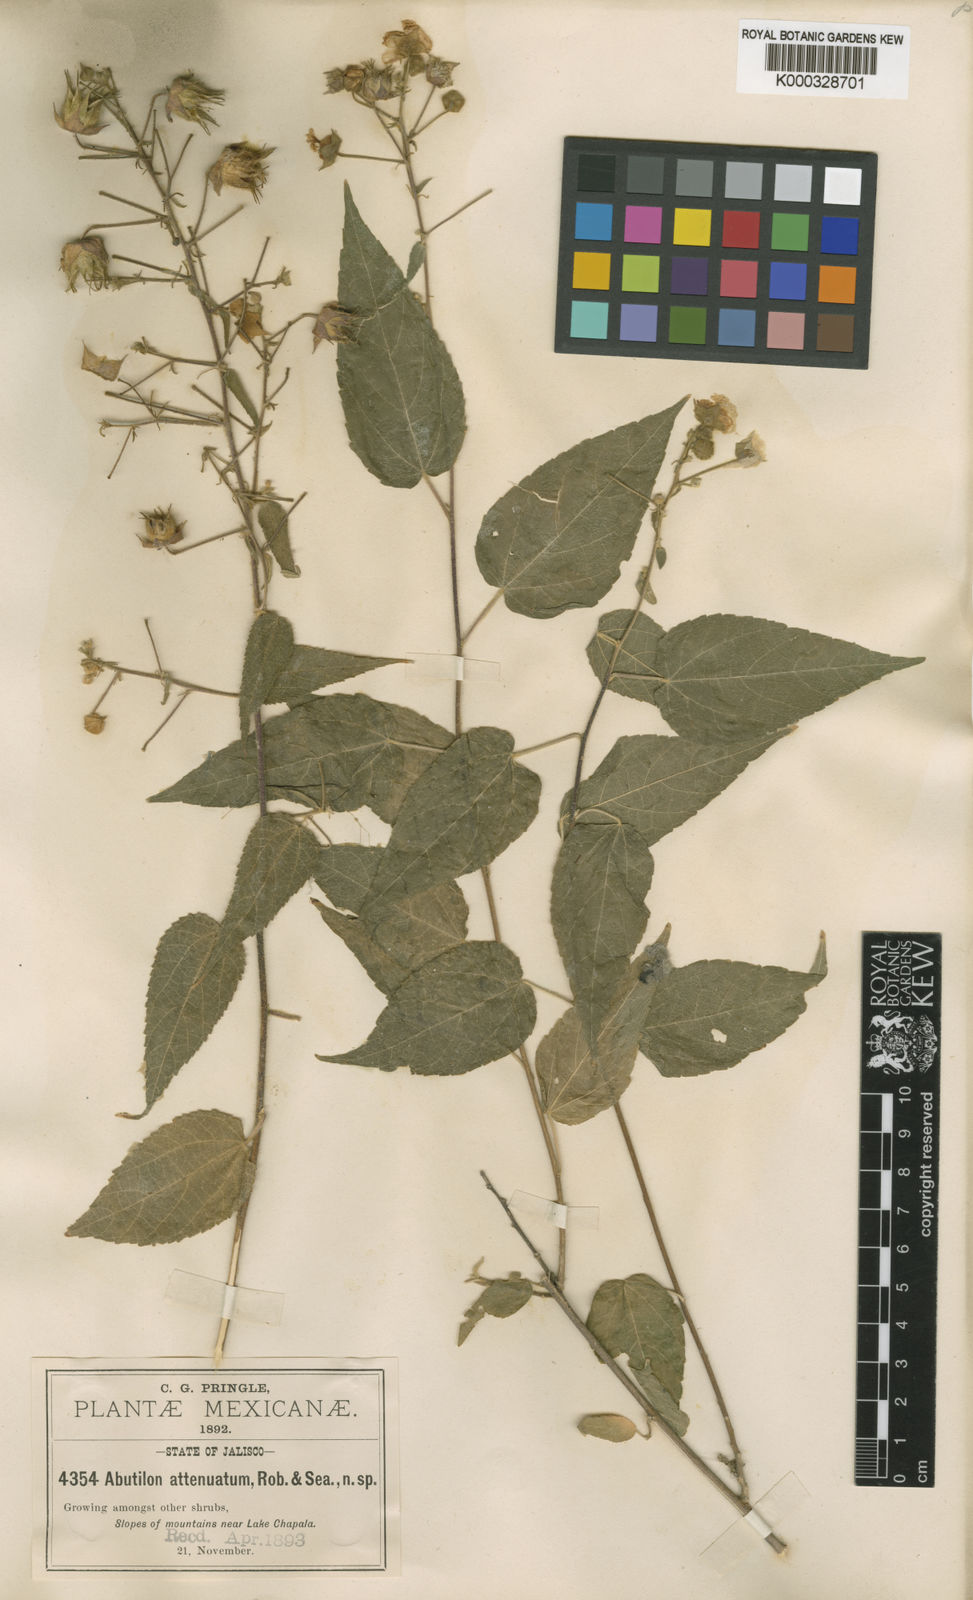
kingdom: Plantae
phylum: Tracheophyta
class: Magnoliopsida
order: Malvales
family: Malvaceae
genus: Pseudabutilon
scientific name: Pseudabutilon ellipticum
